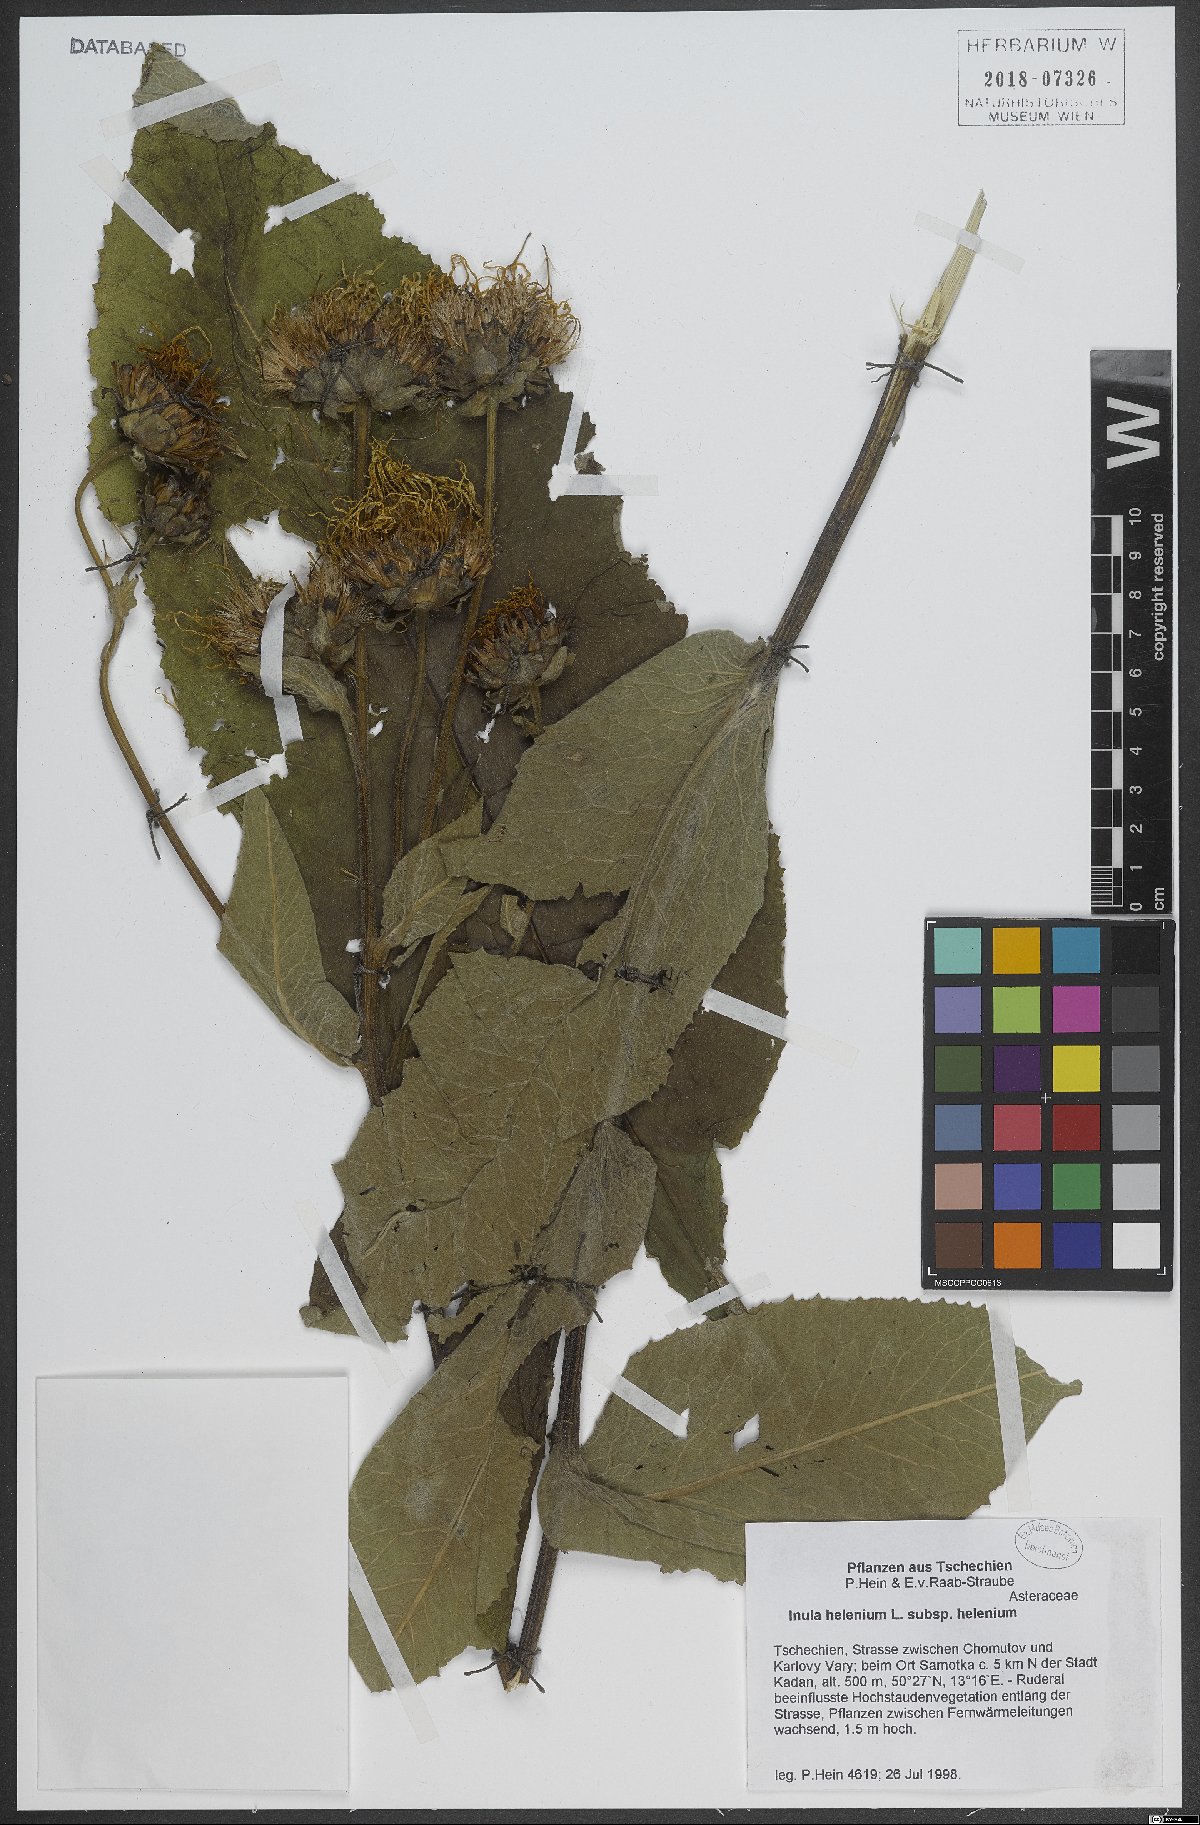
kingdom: Plantae
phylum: Tracheophyta
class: Magnoliopsida
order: Asterales
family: Asteraceae
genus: Inula
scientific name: Inula
